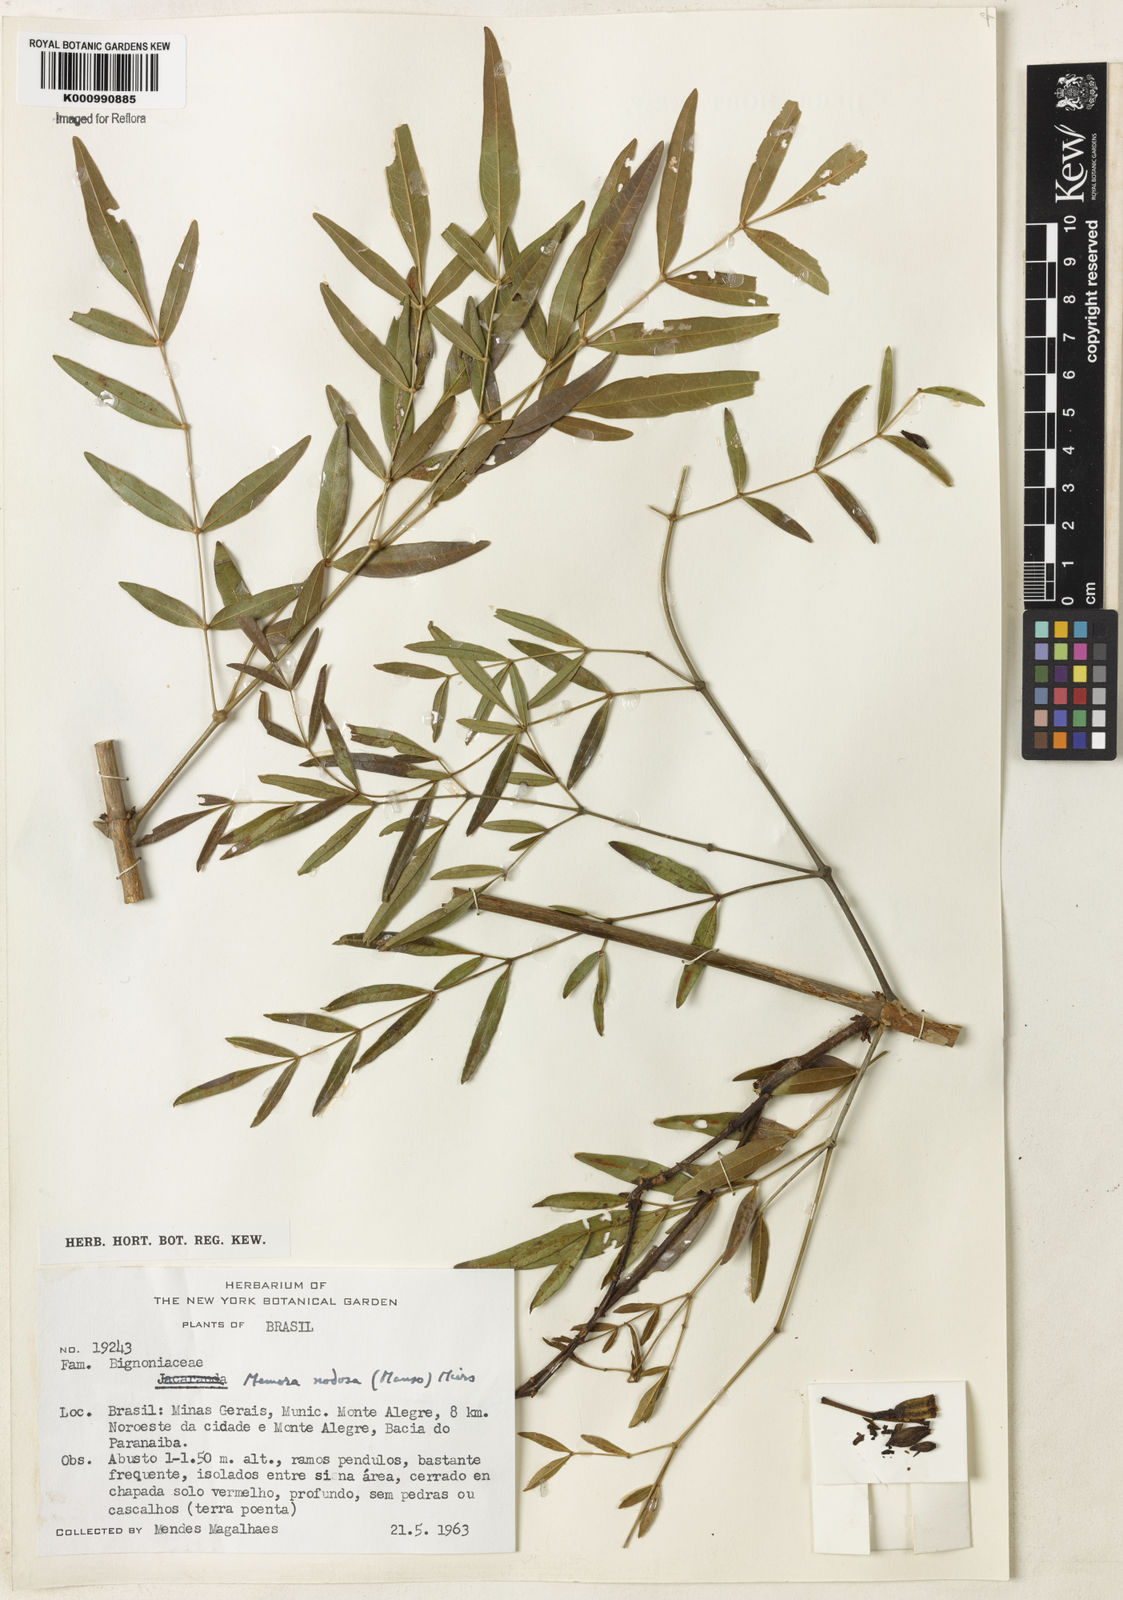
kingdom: Plantae
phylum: Tracheophyta
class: Magnoliopsida
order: Lamiales
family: Bignoniaceae
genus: Adenocalymma
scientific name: Adenocalymma nodosum
